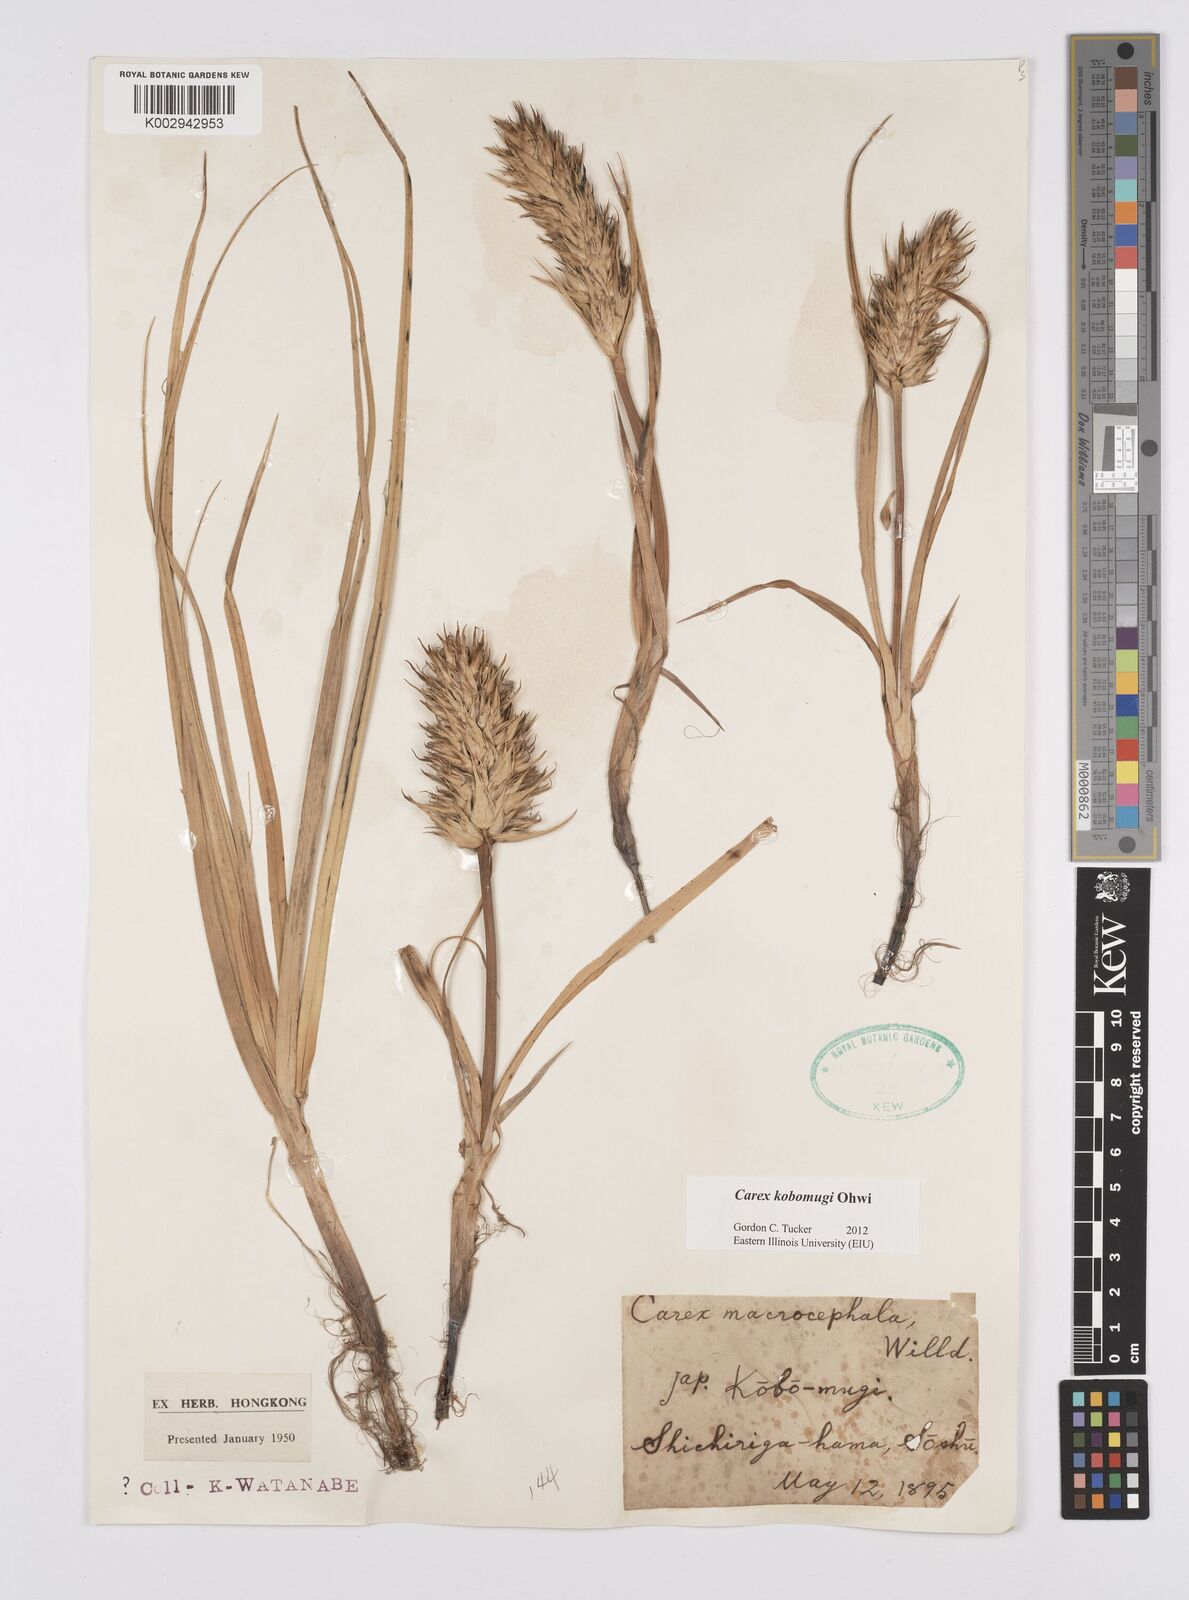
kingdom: Plantae
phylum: Tracheophyta
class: Liliopsida
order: Poales
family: Cyperaceae
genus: Carex
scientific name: Carex kobomugi
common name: Japanese sedge
